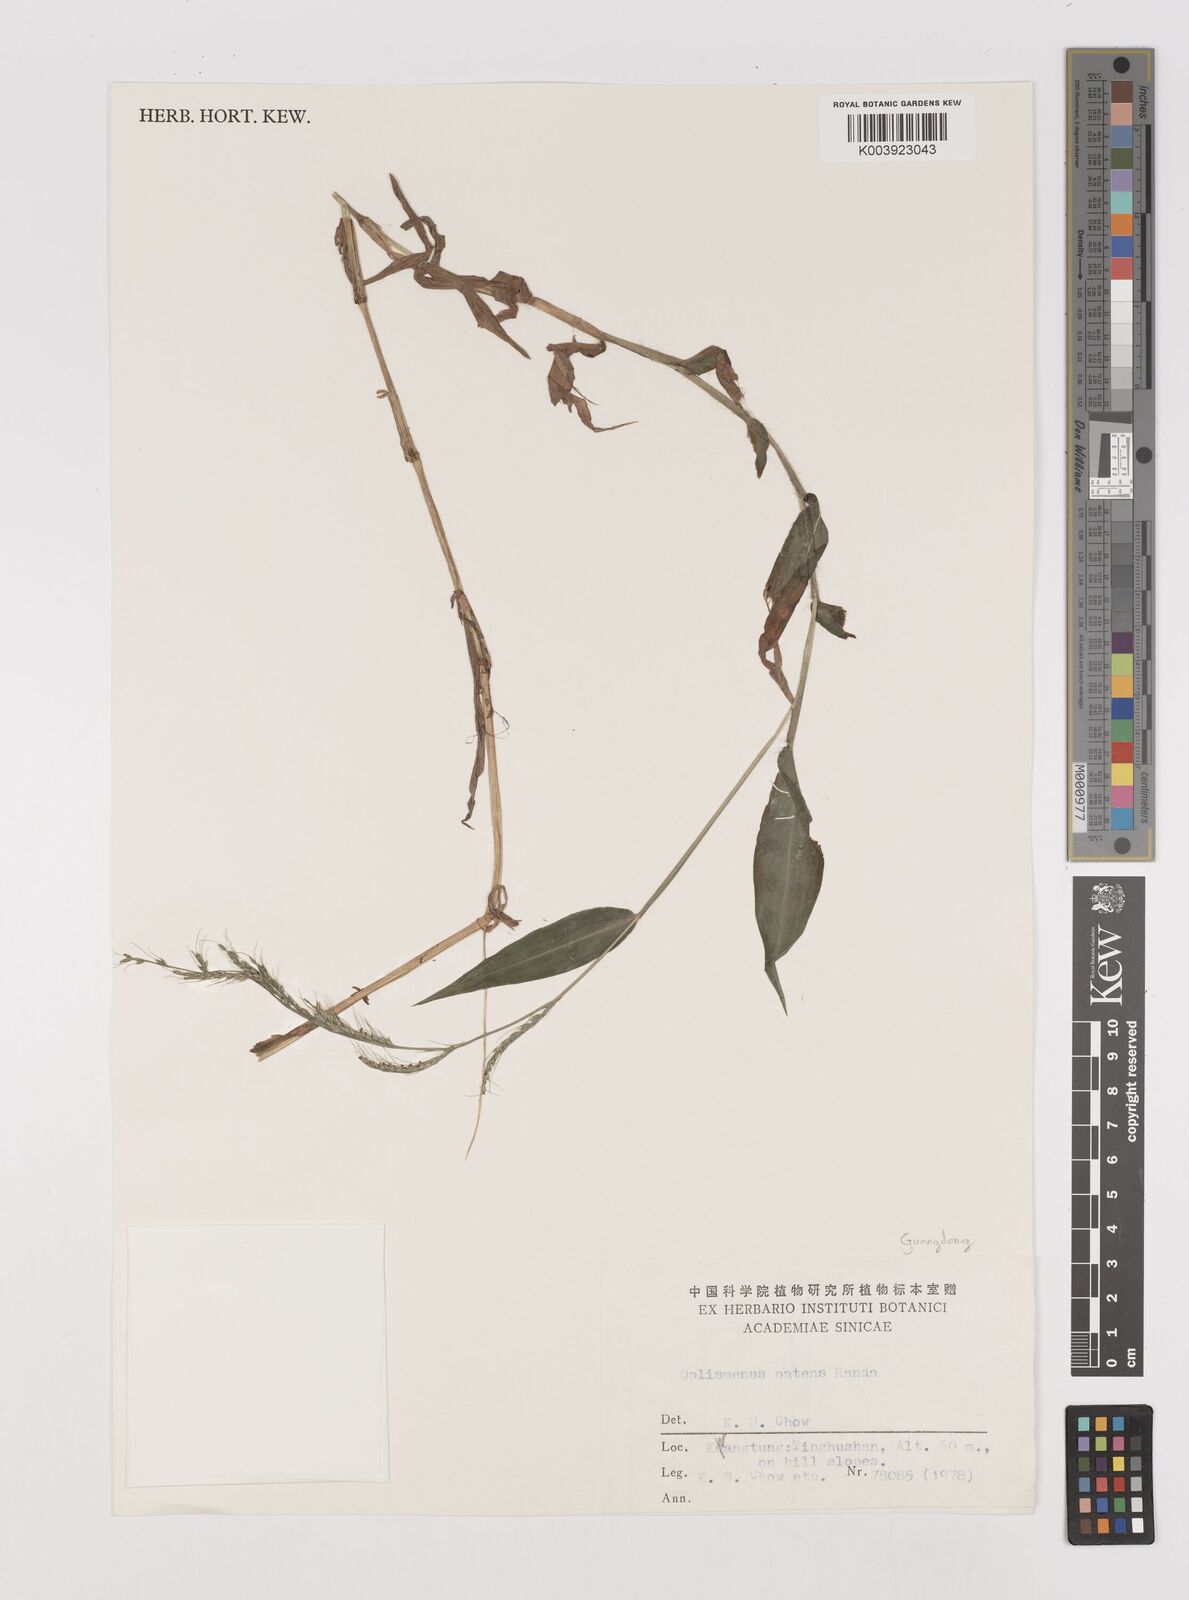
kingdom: Plantae
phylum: Tracheophyta
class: Liliopsida
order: Poales
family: Poaceae
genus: Oplismenus
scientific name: Oplismenus compositus
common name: Running mountain grass
